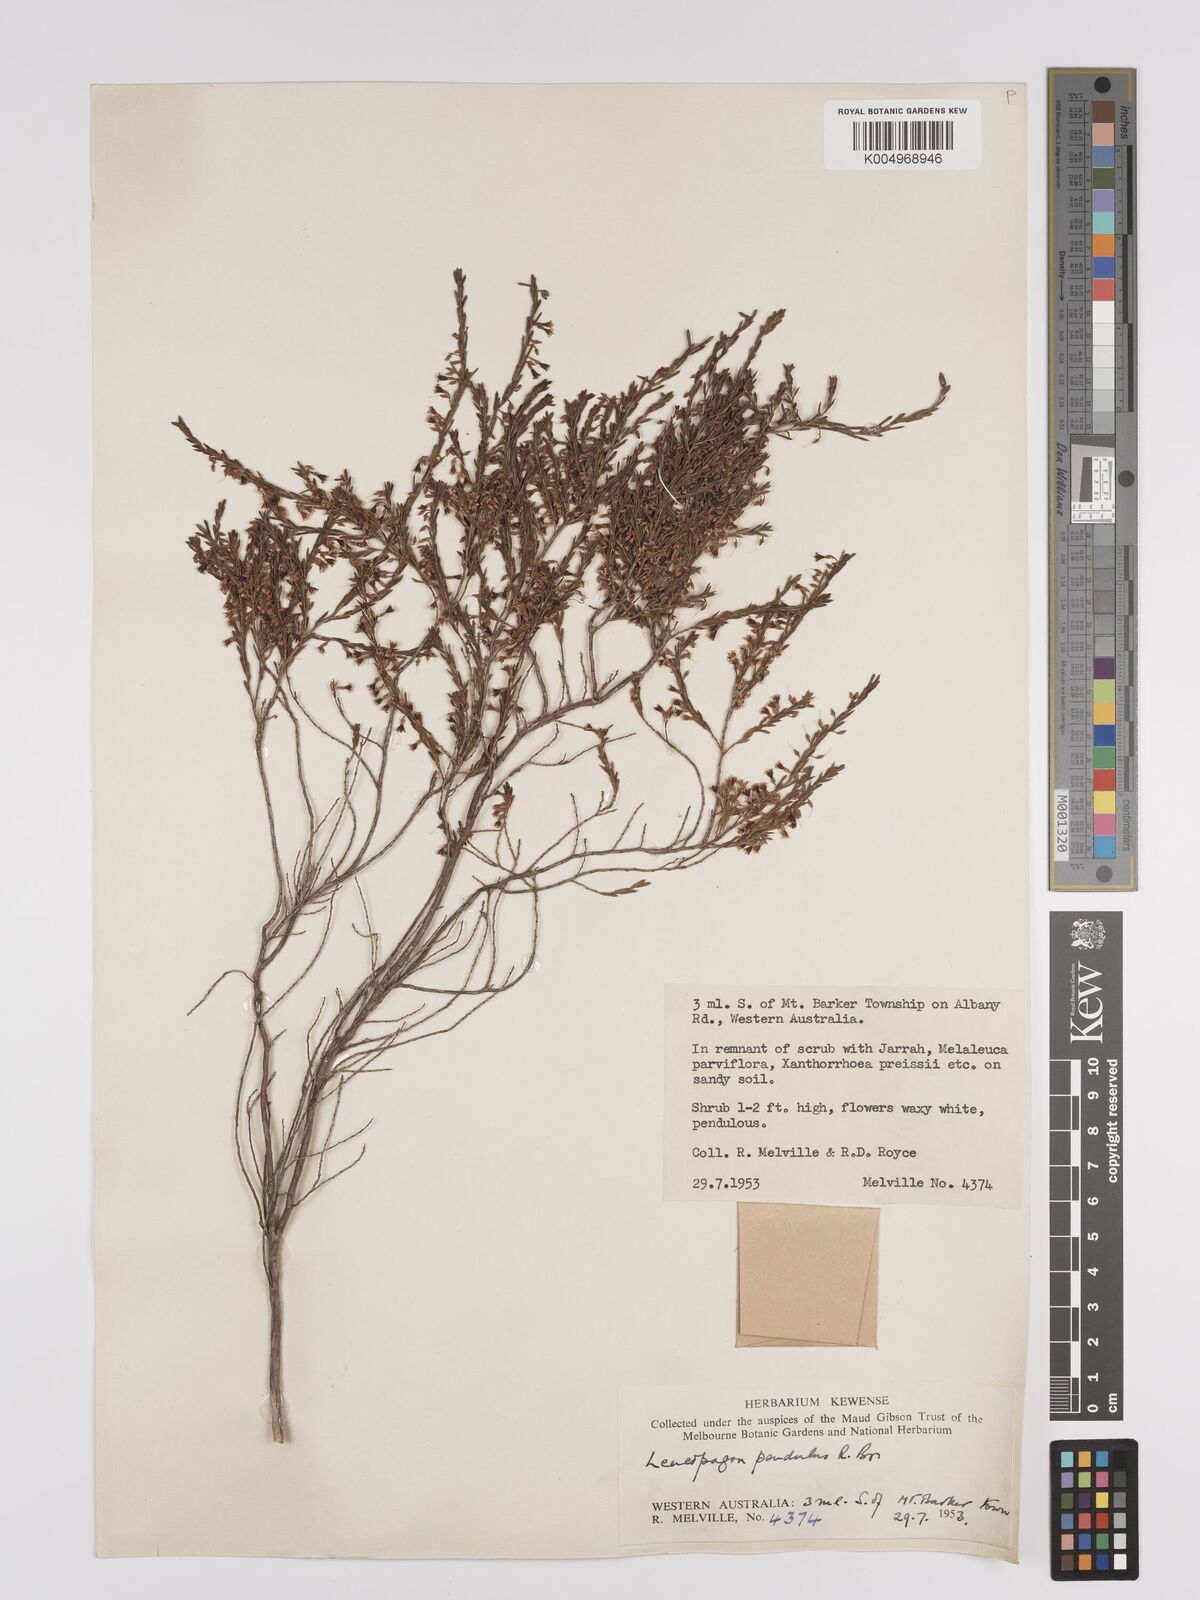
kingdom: Plantae
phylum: Tracheophyta
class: Magnoliopsida
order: Ericales
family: Ericaceae
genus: Styphelia
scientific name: Styphelia pendula
